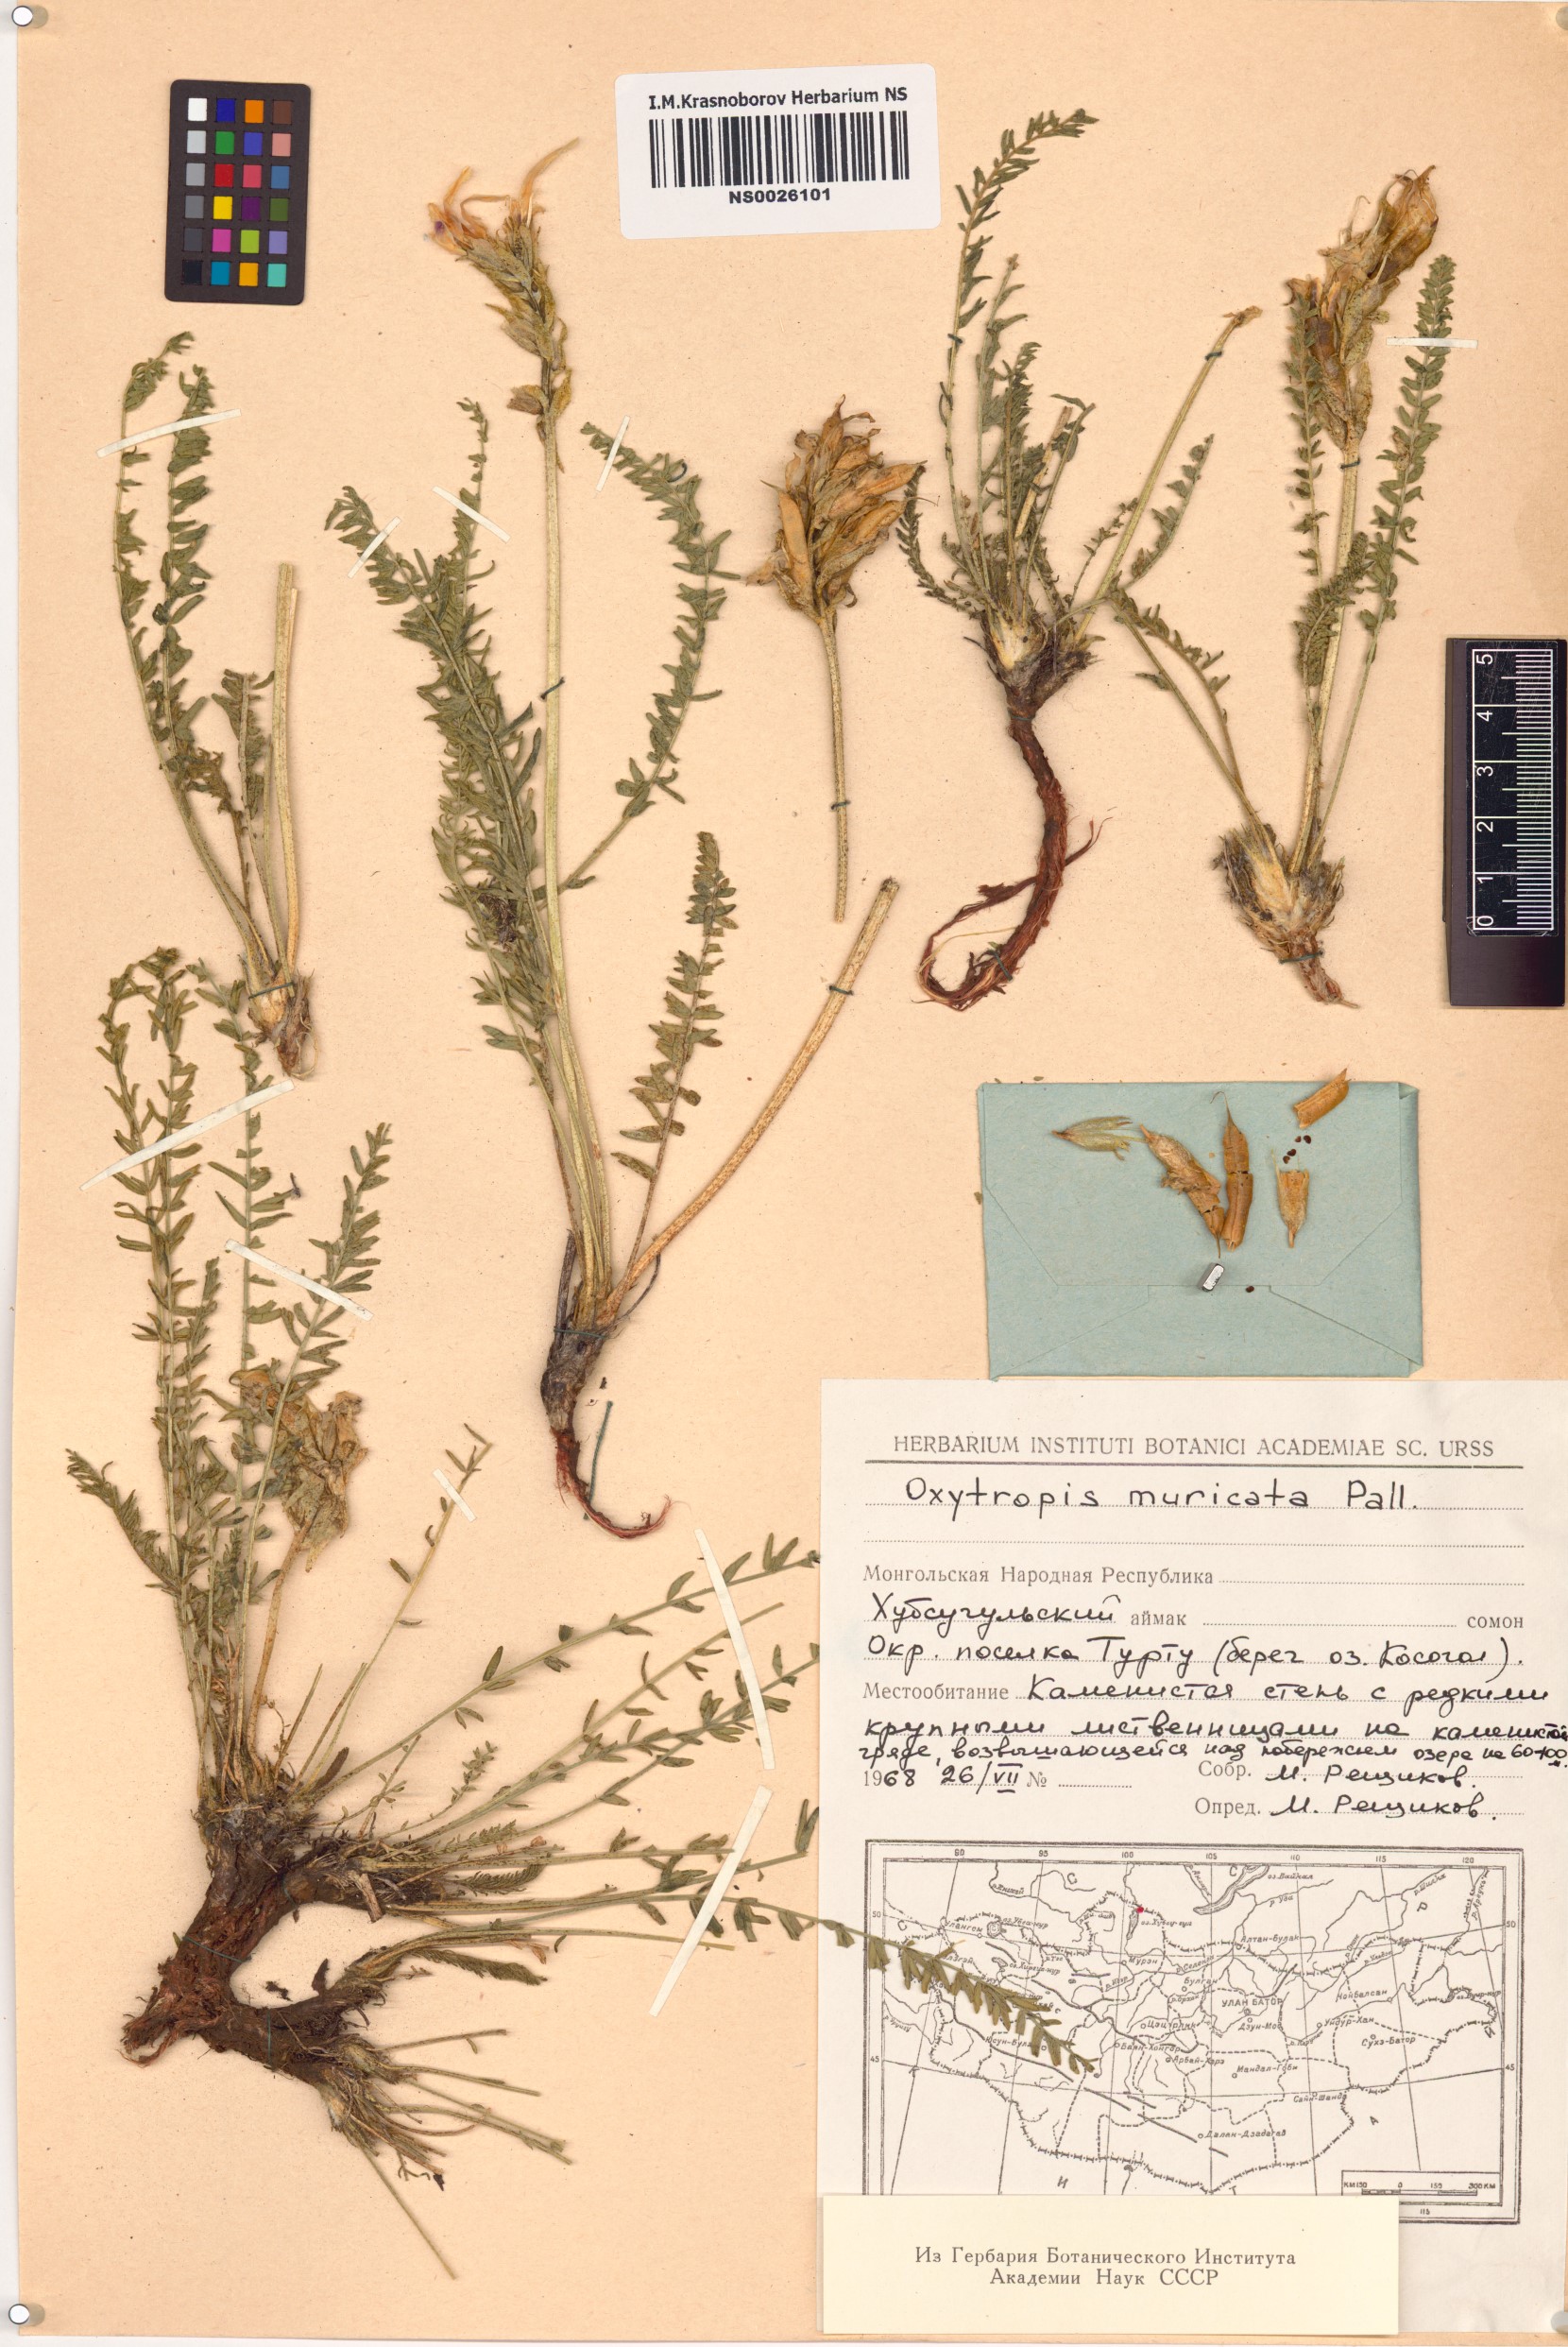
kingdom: Plantae
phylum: Tracheophyta
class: Magnoliopsida
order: Fabales
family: Fabaceae
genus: Oxytropis
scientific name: Oxytropis muricata
